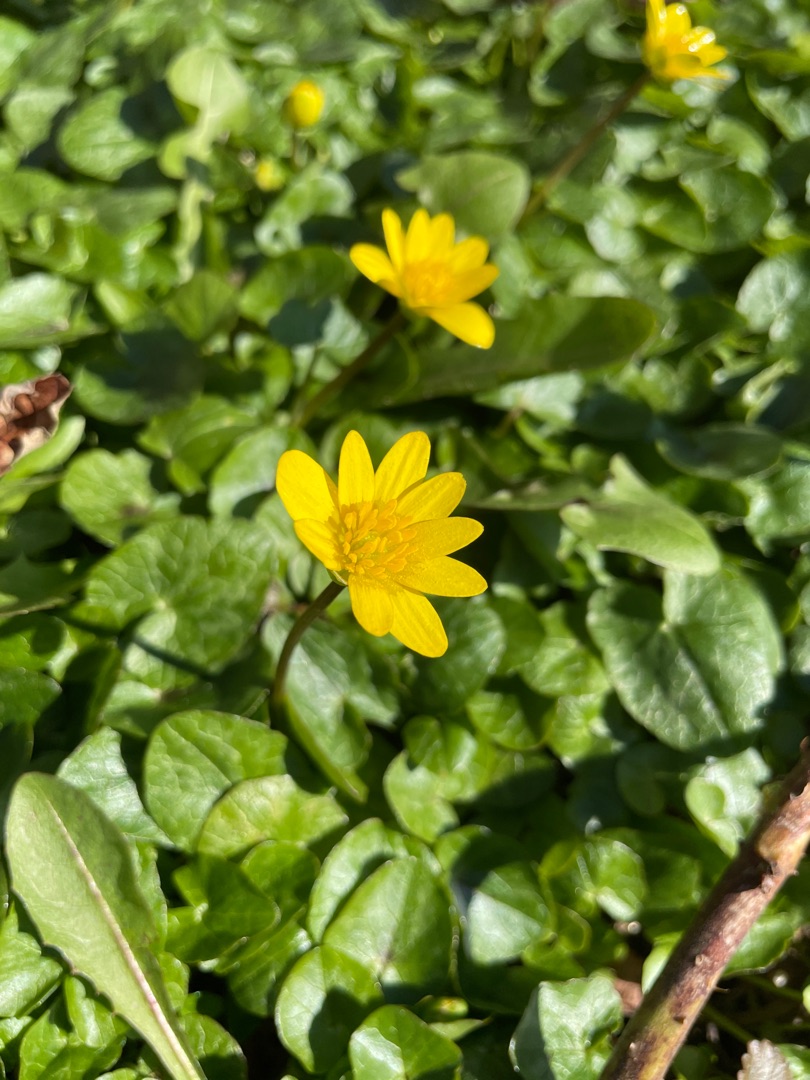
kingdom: Plantae
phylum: Tracheophyta
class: Magnoliopsida
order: Ranunculales
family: Ranunculaceae
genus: Ficaria
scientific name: Ficaria verna
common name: Vorterod
